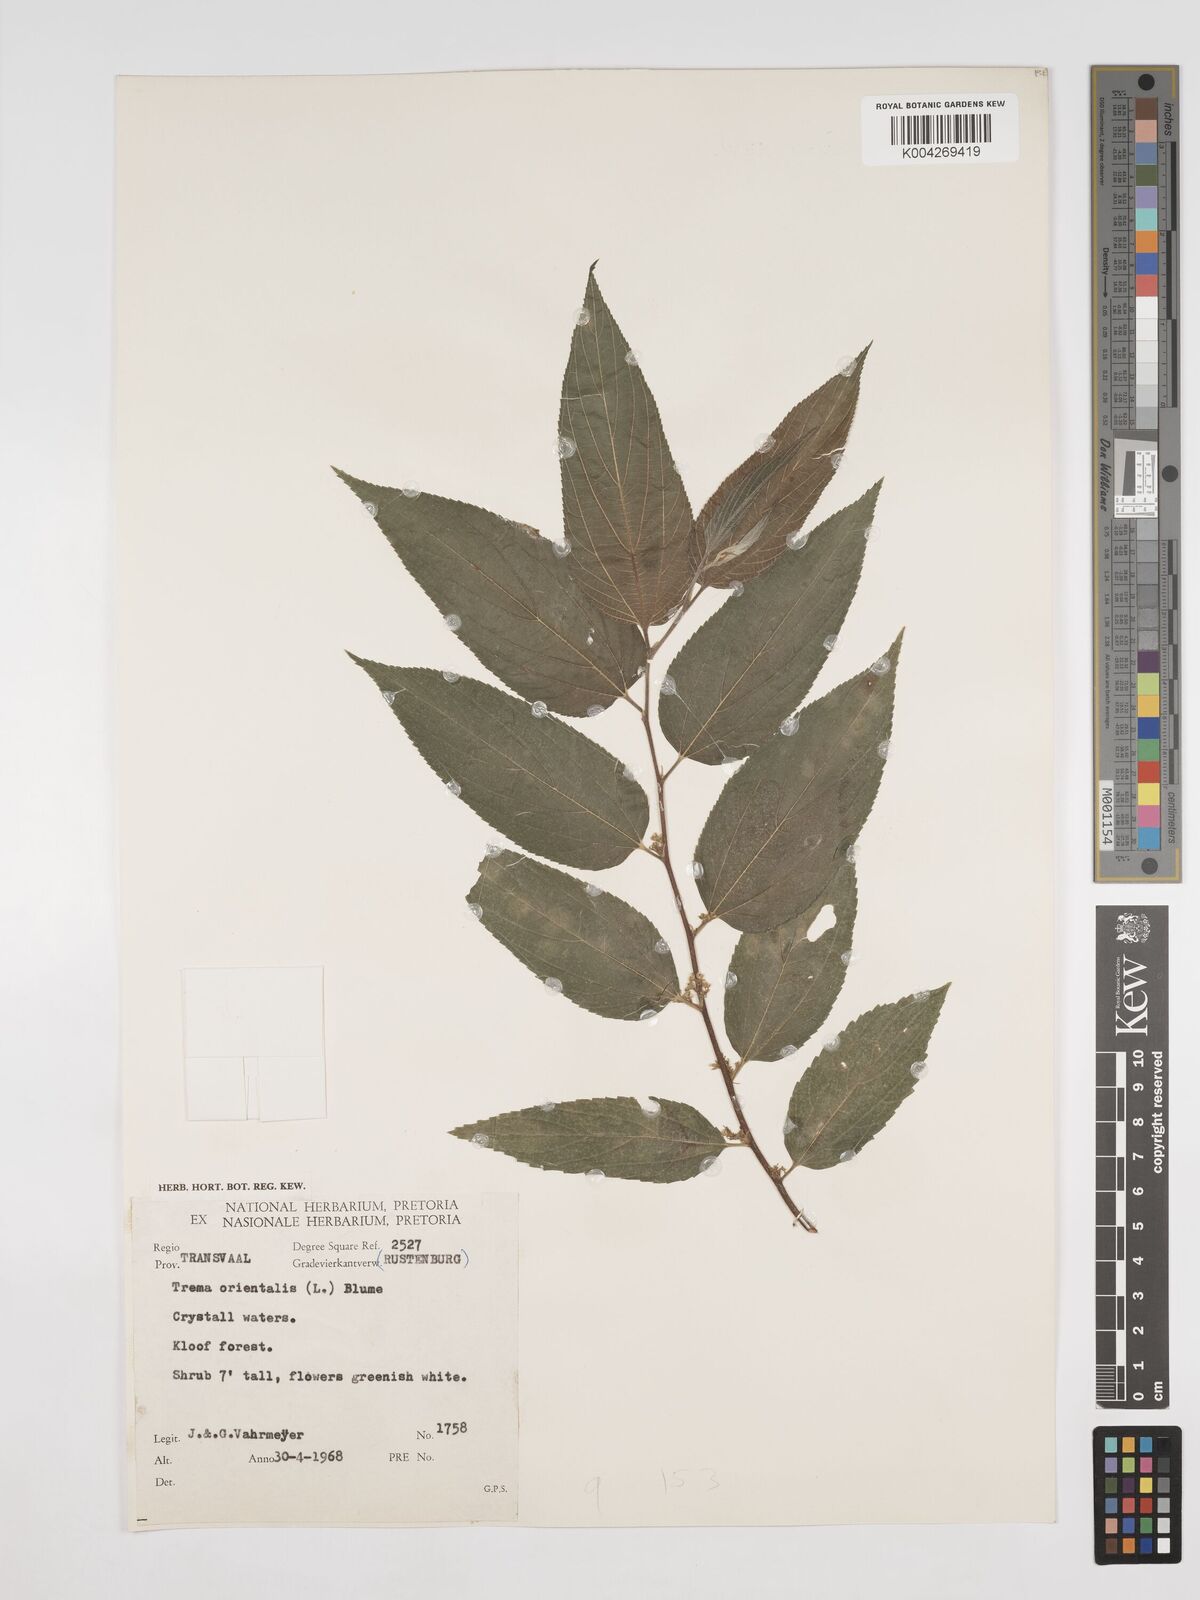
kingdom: Plantae
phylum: Tracheophyta
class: Magnoliopsida
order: Rosales
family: Cannabaceae
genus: Trema
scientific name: Trema orientale
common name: Indian charcoal tree
